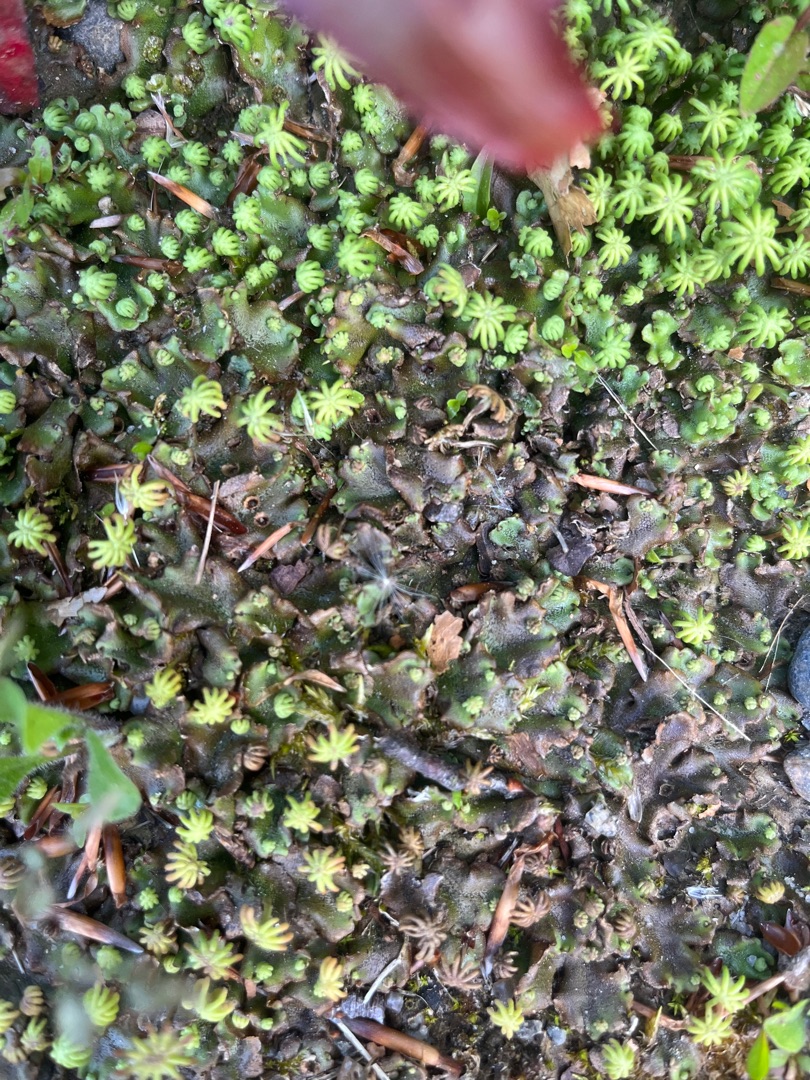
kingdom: Plantae
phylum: Marchantiophyta
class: Marchantiopsida
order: Marchantiales
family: Marchantiaceae
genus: Marchantia
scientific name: Marchantia polymorpha
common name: Almindelig lungemos (underart)
